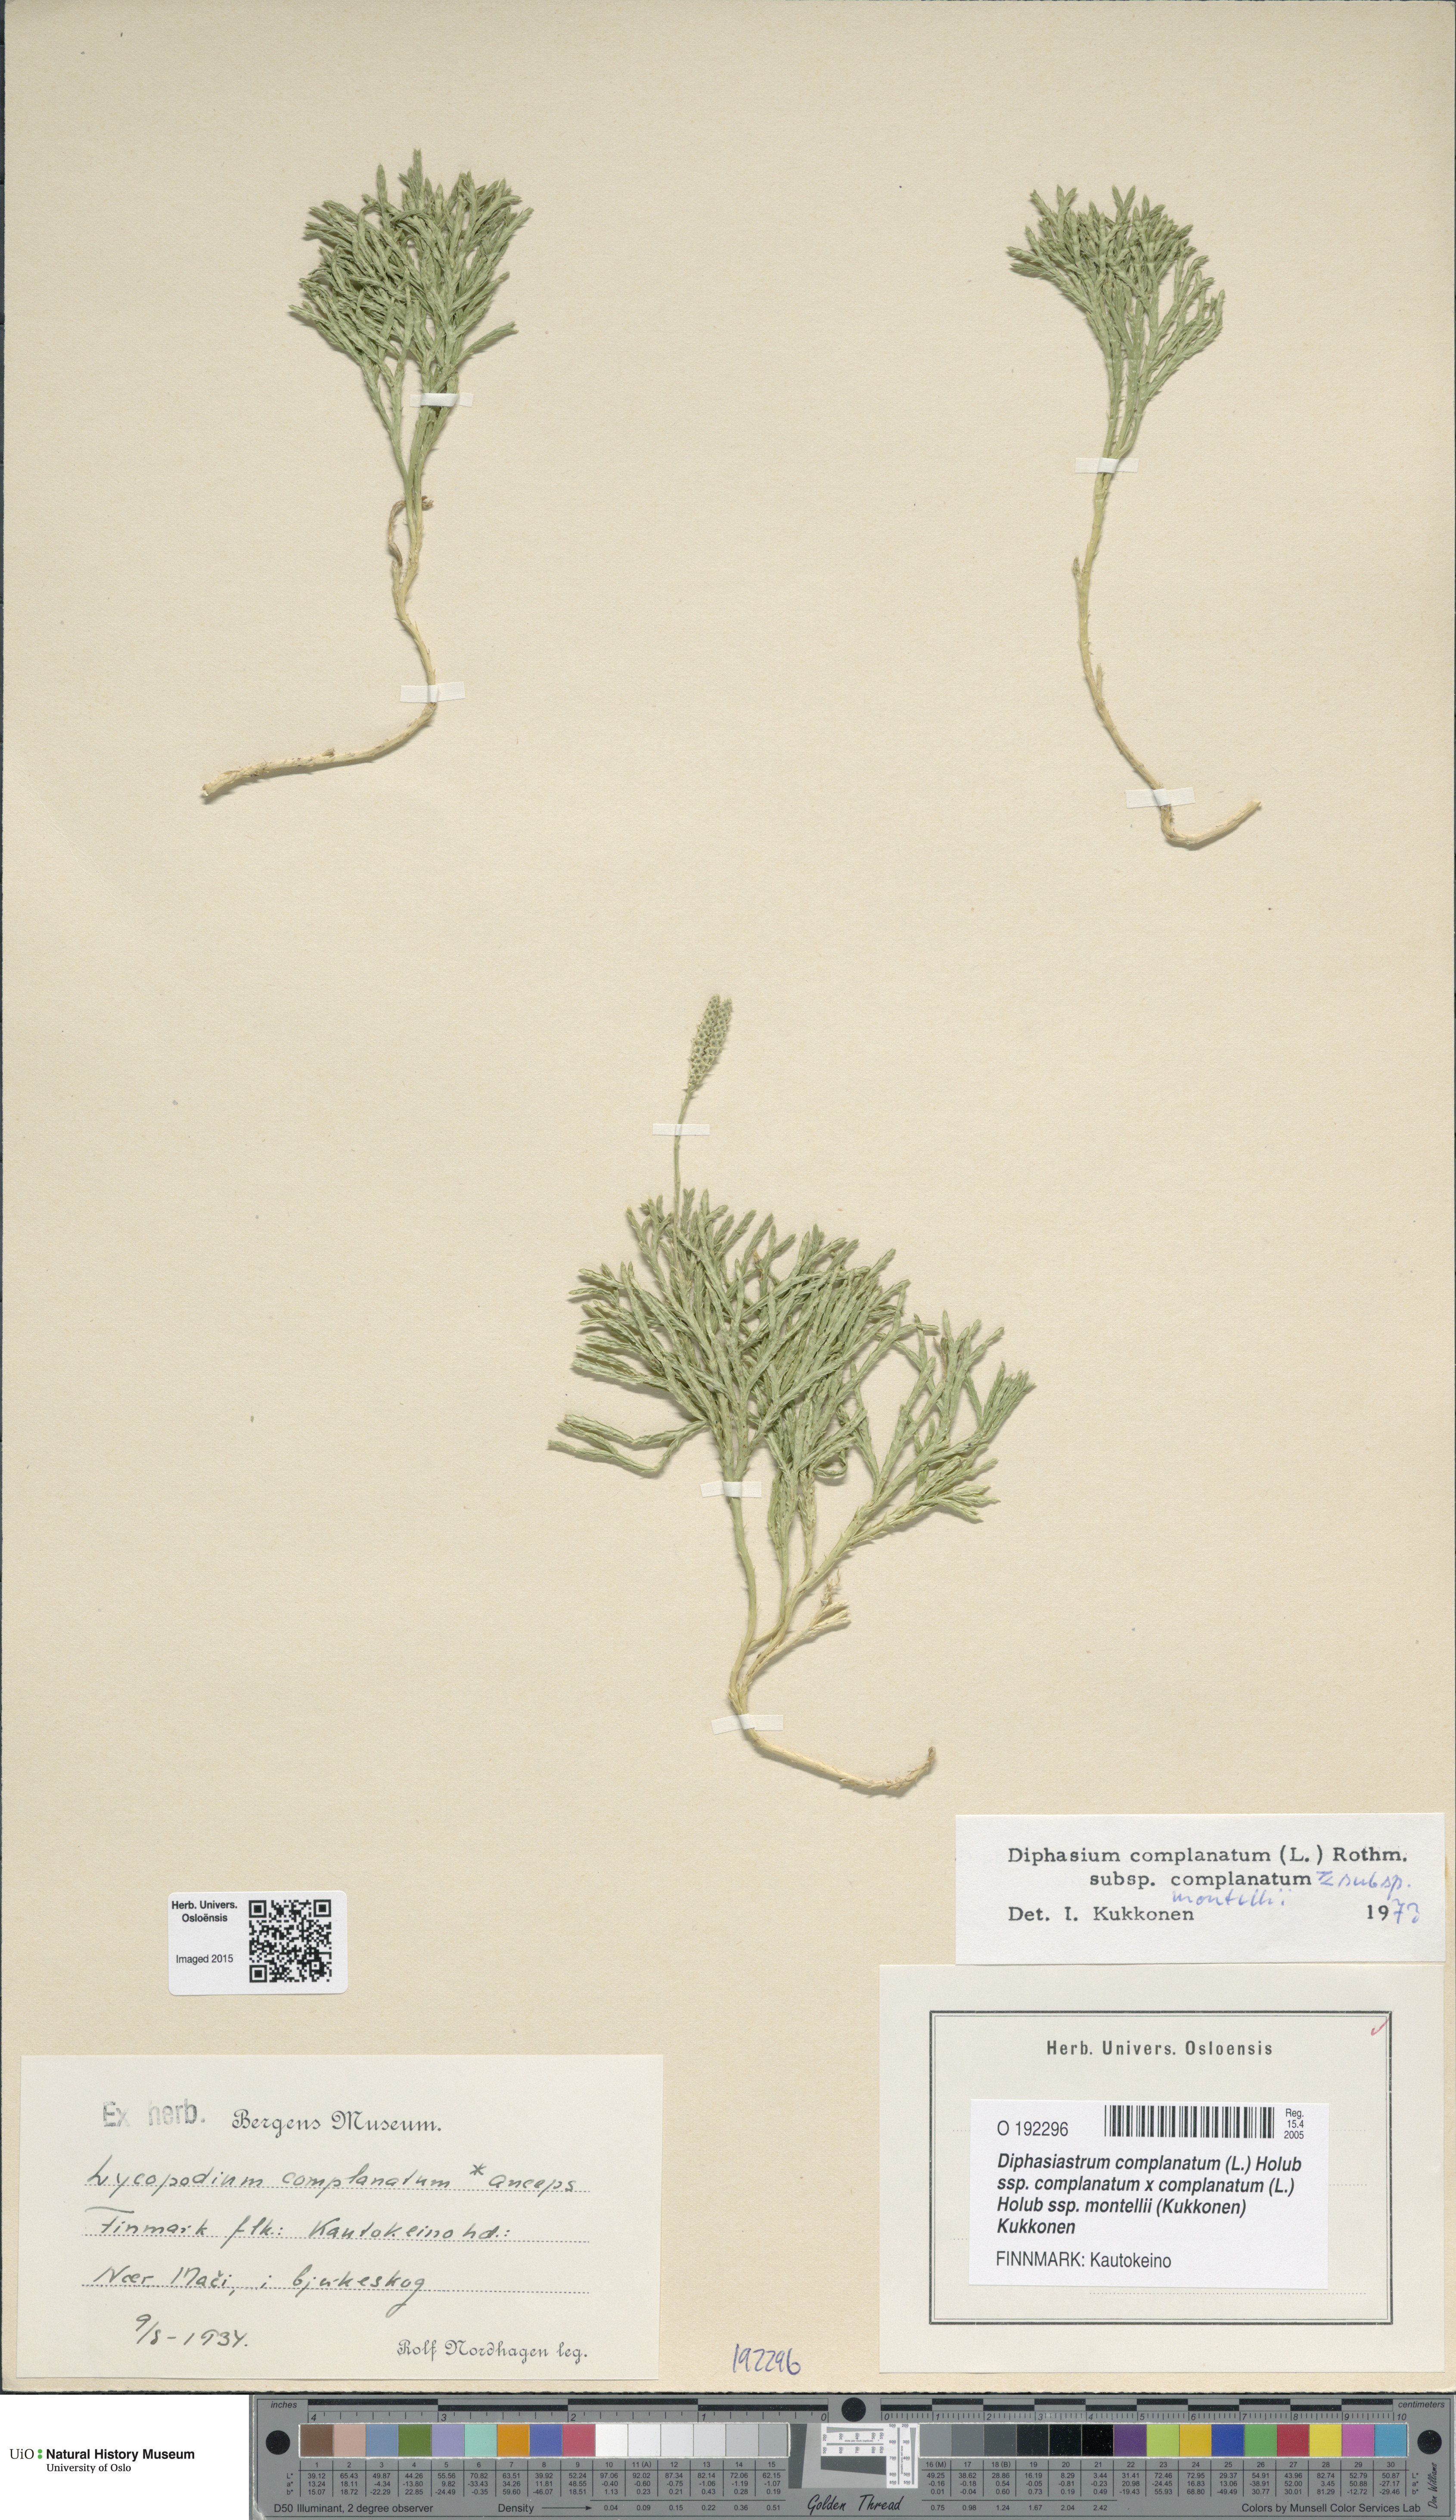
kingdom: Plantae
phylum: Tracheophyta
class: Lycopodiopsida
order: Lycopodiales
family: Lycopodiaceae
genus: Diphasiastrum
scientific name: Diphasiastrum
